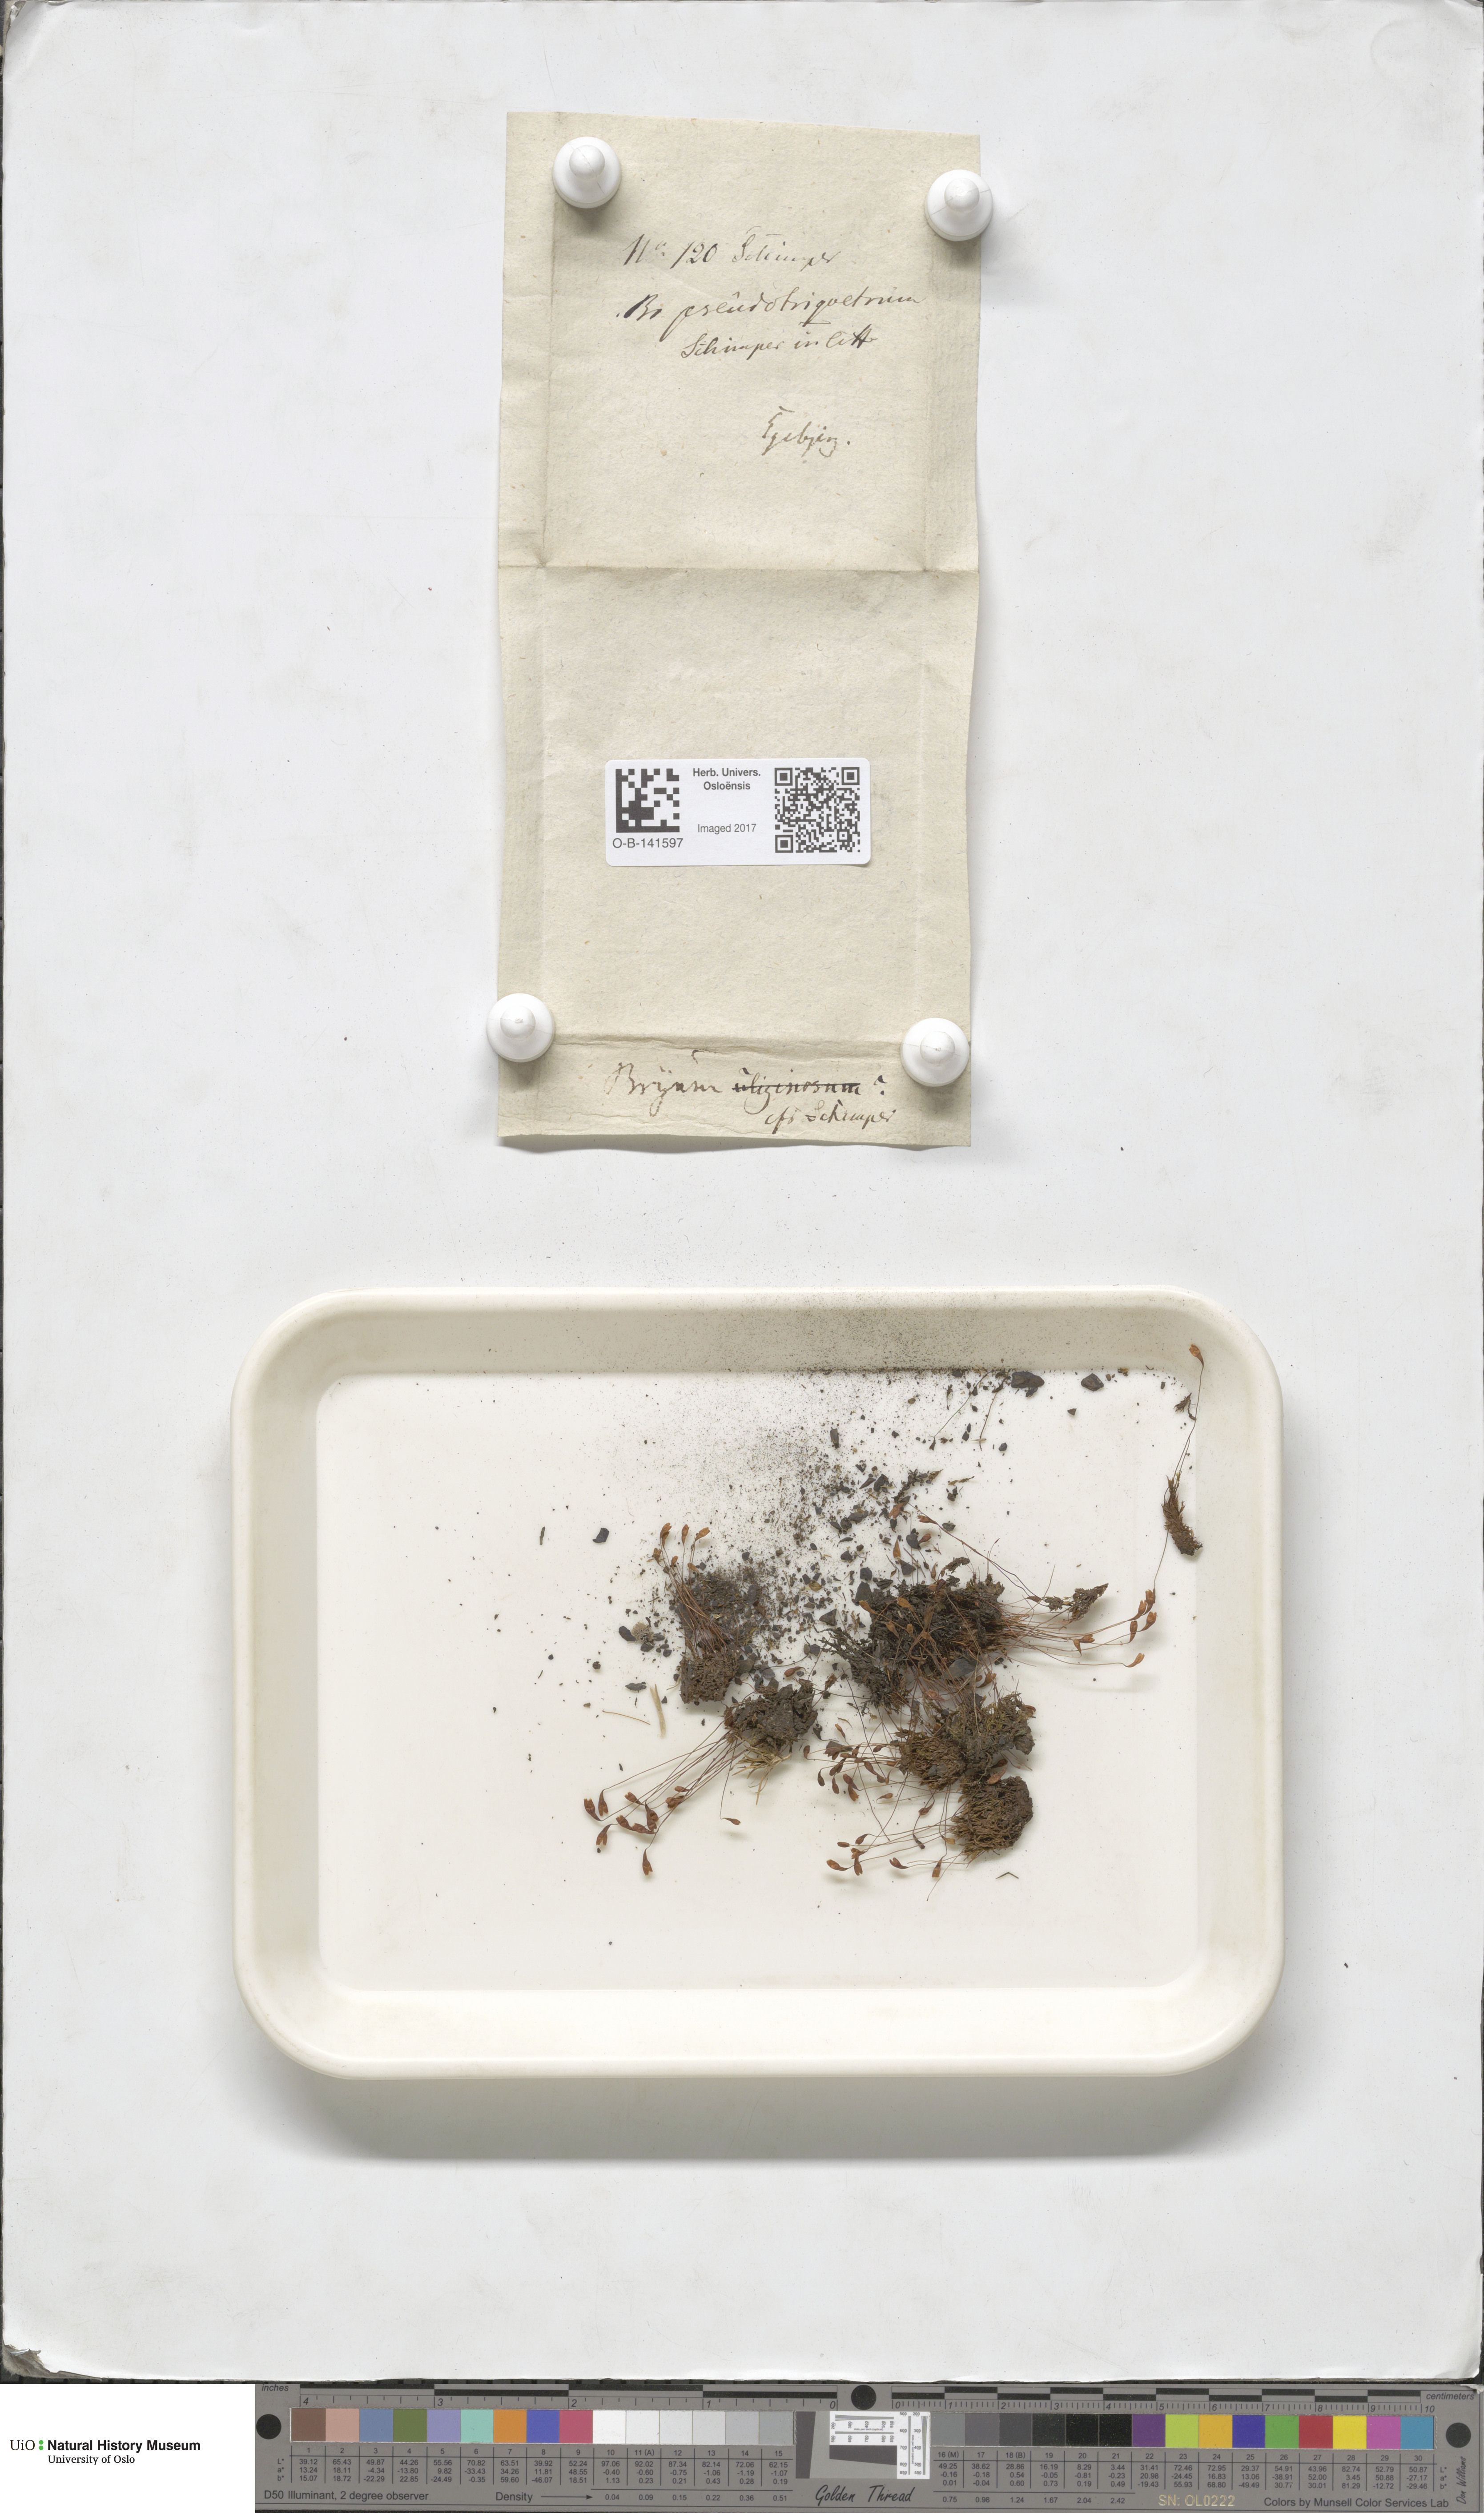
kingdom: Plantae
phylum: Bryophyta
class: Bryopsida
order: Bryales
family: Bryaceae
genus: Ptychostomum
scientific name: Ptychostomum pseudotriquetrum
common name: Long-leaved thread moss
